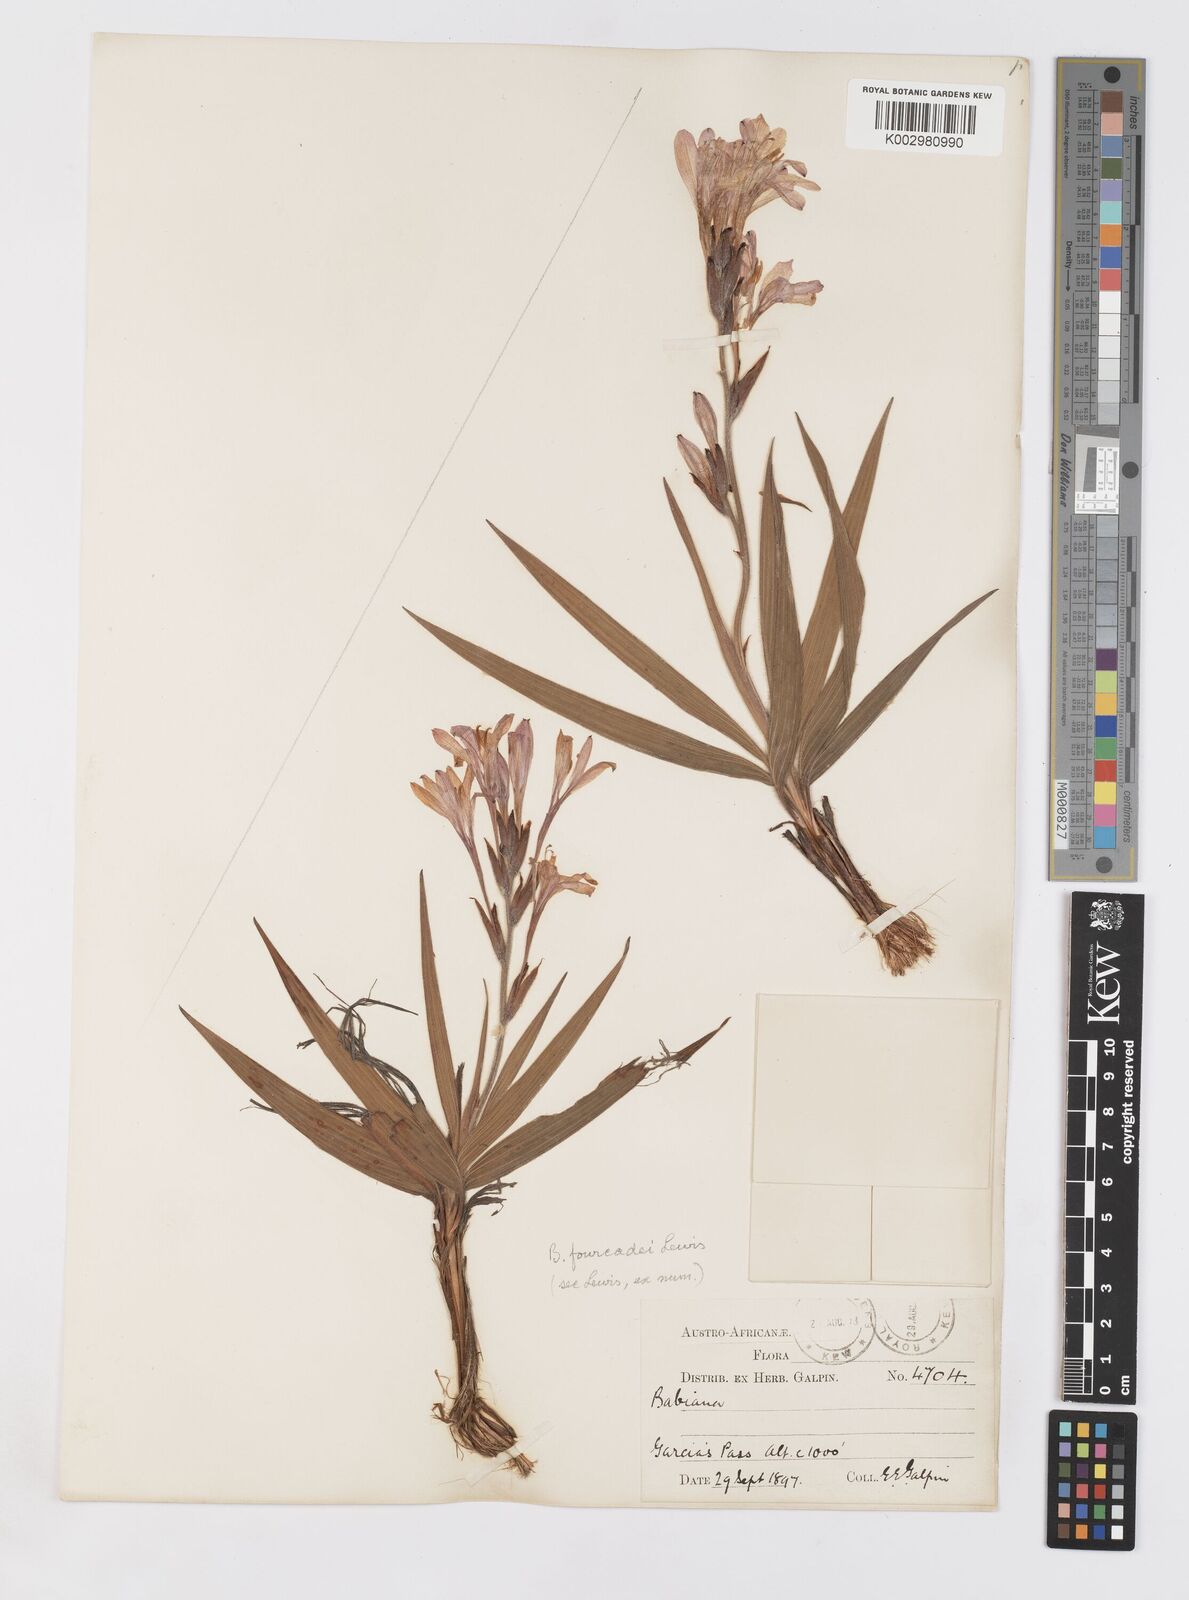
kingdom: Plantae
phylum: Tracheophyta
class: Liliopsida
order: Asparagales
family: Iridaceae
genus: Babiana
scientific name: Babiana fourcadei
